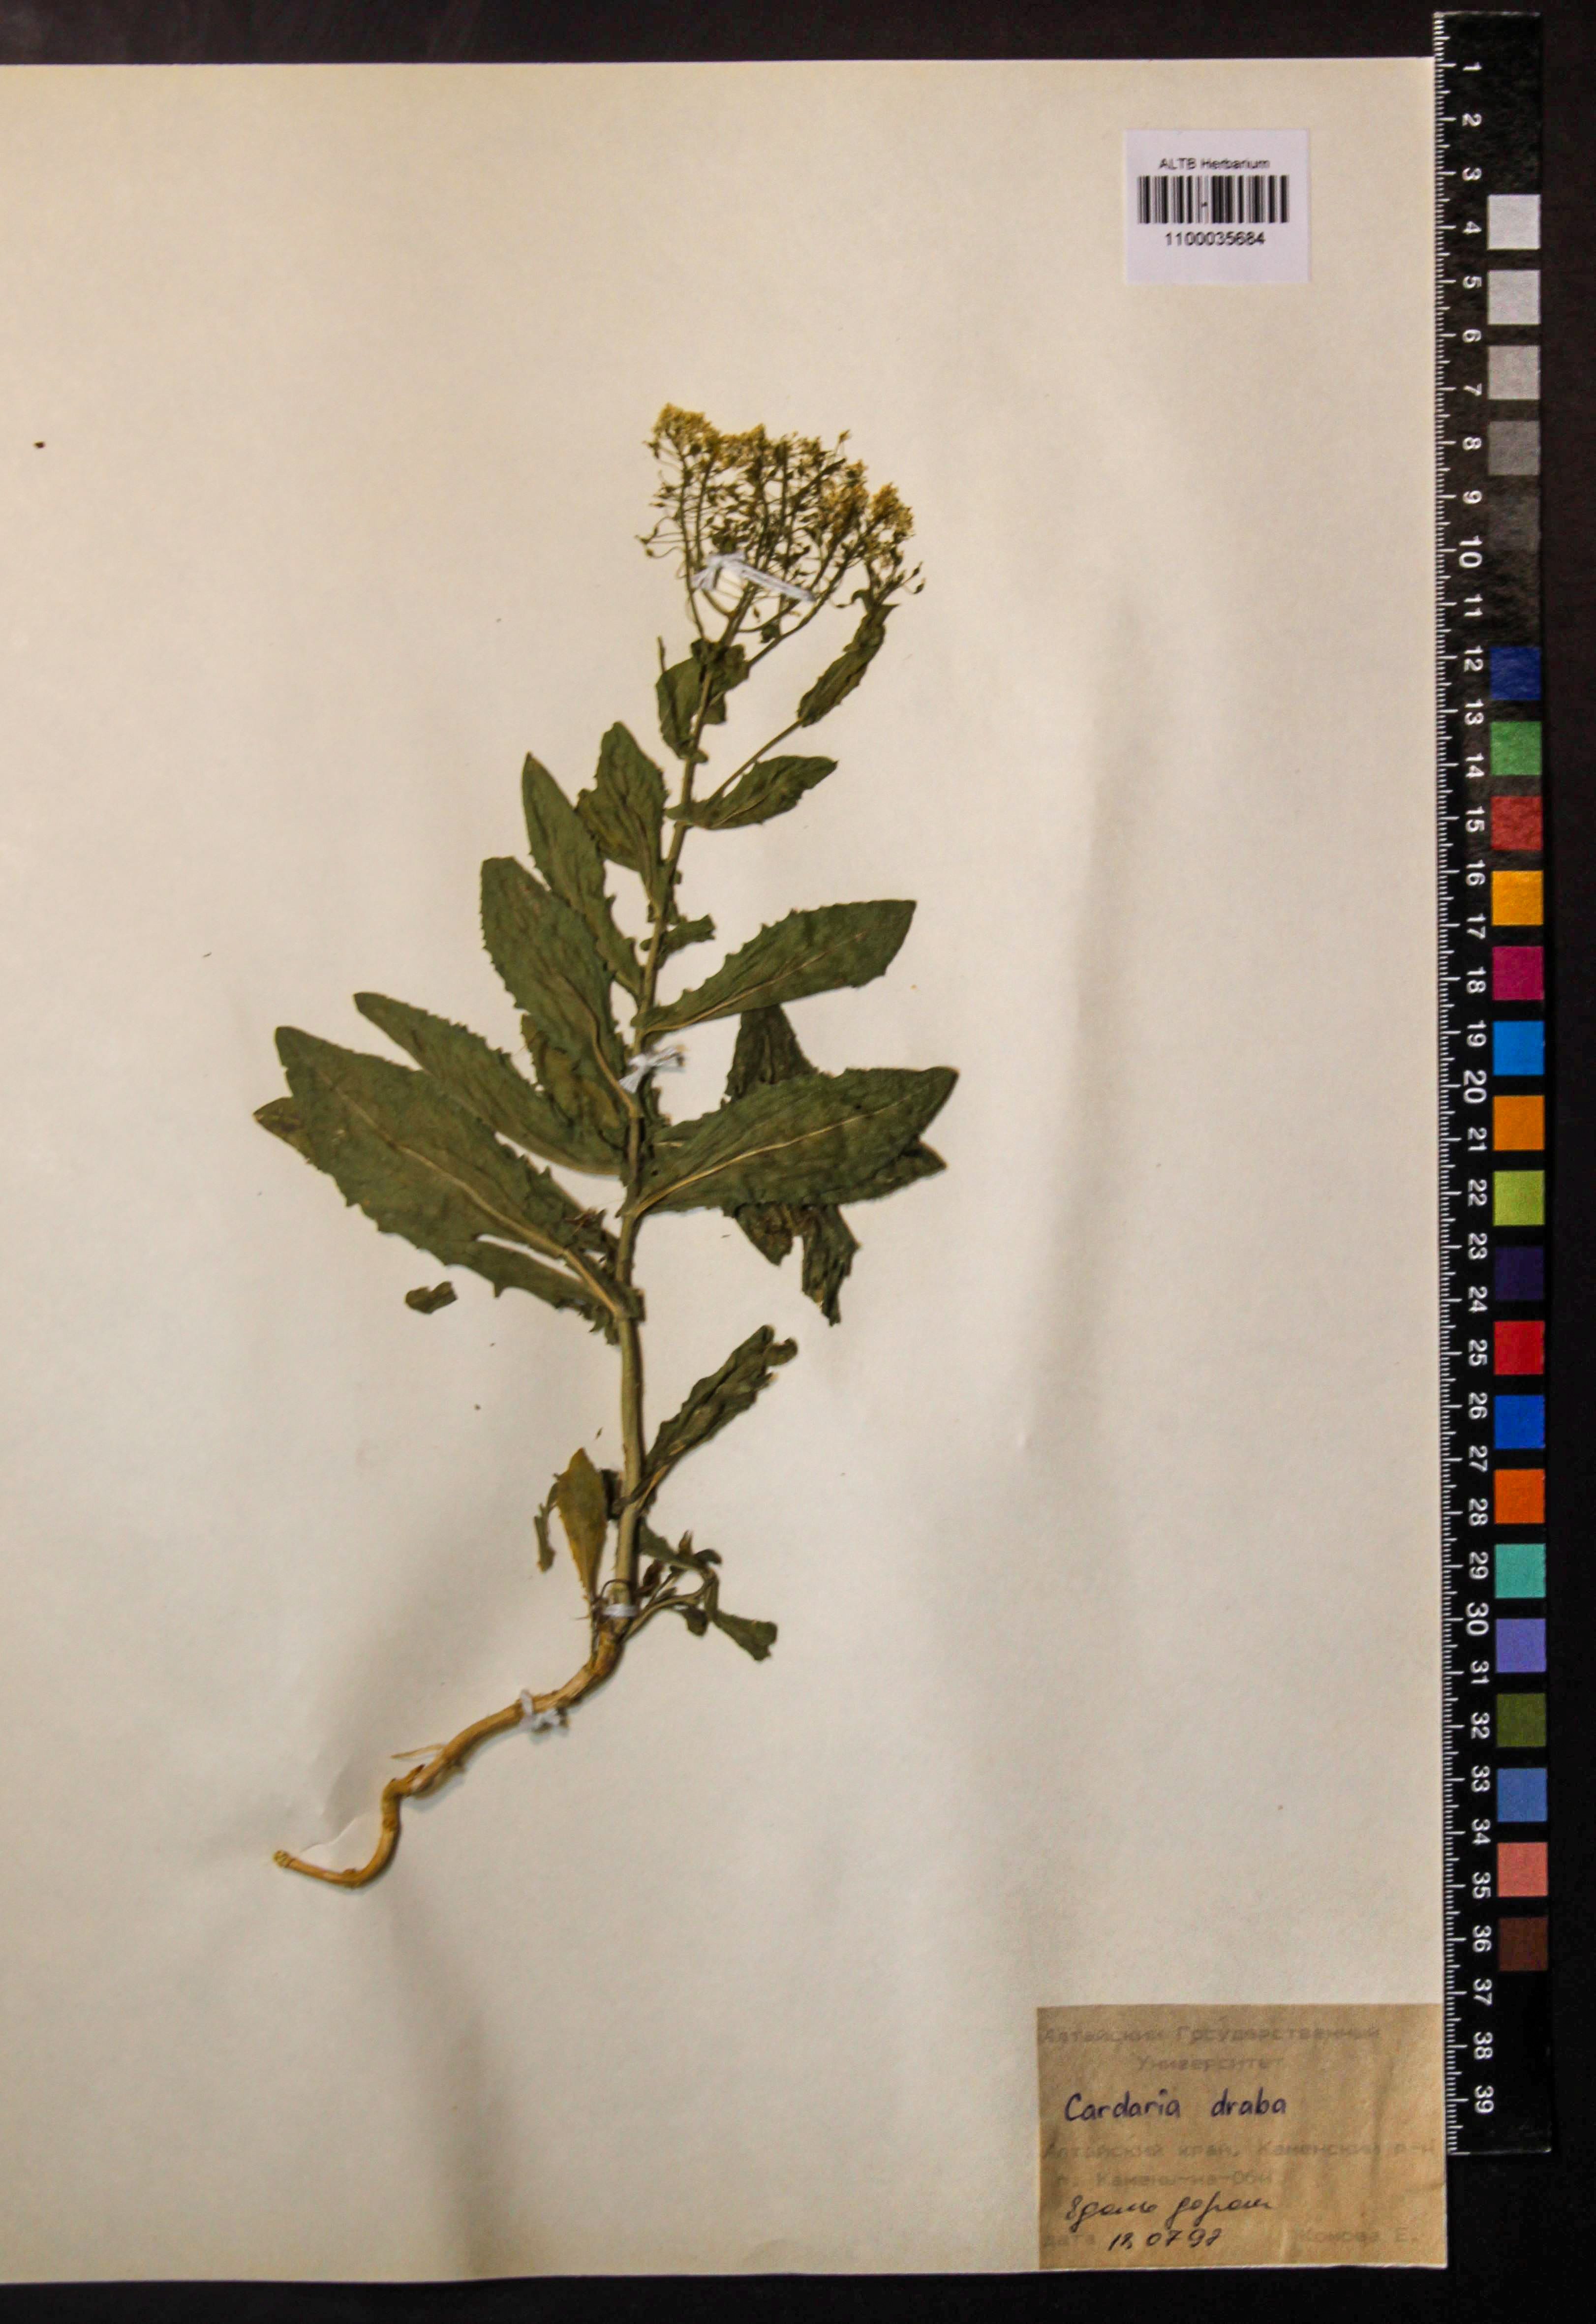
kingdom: Plantae
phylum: Tracheophyta
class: Magnoliopsida
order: Brassicales
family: Brassicaceae
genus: Lepidium
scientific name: Lepidium draba
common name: Hoary cress
